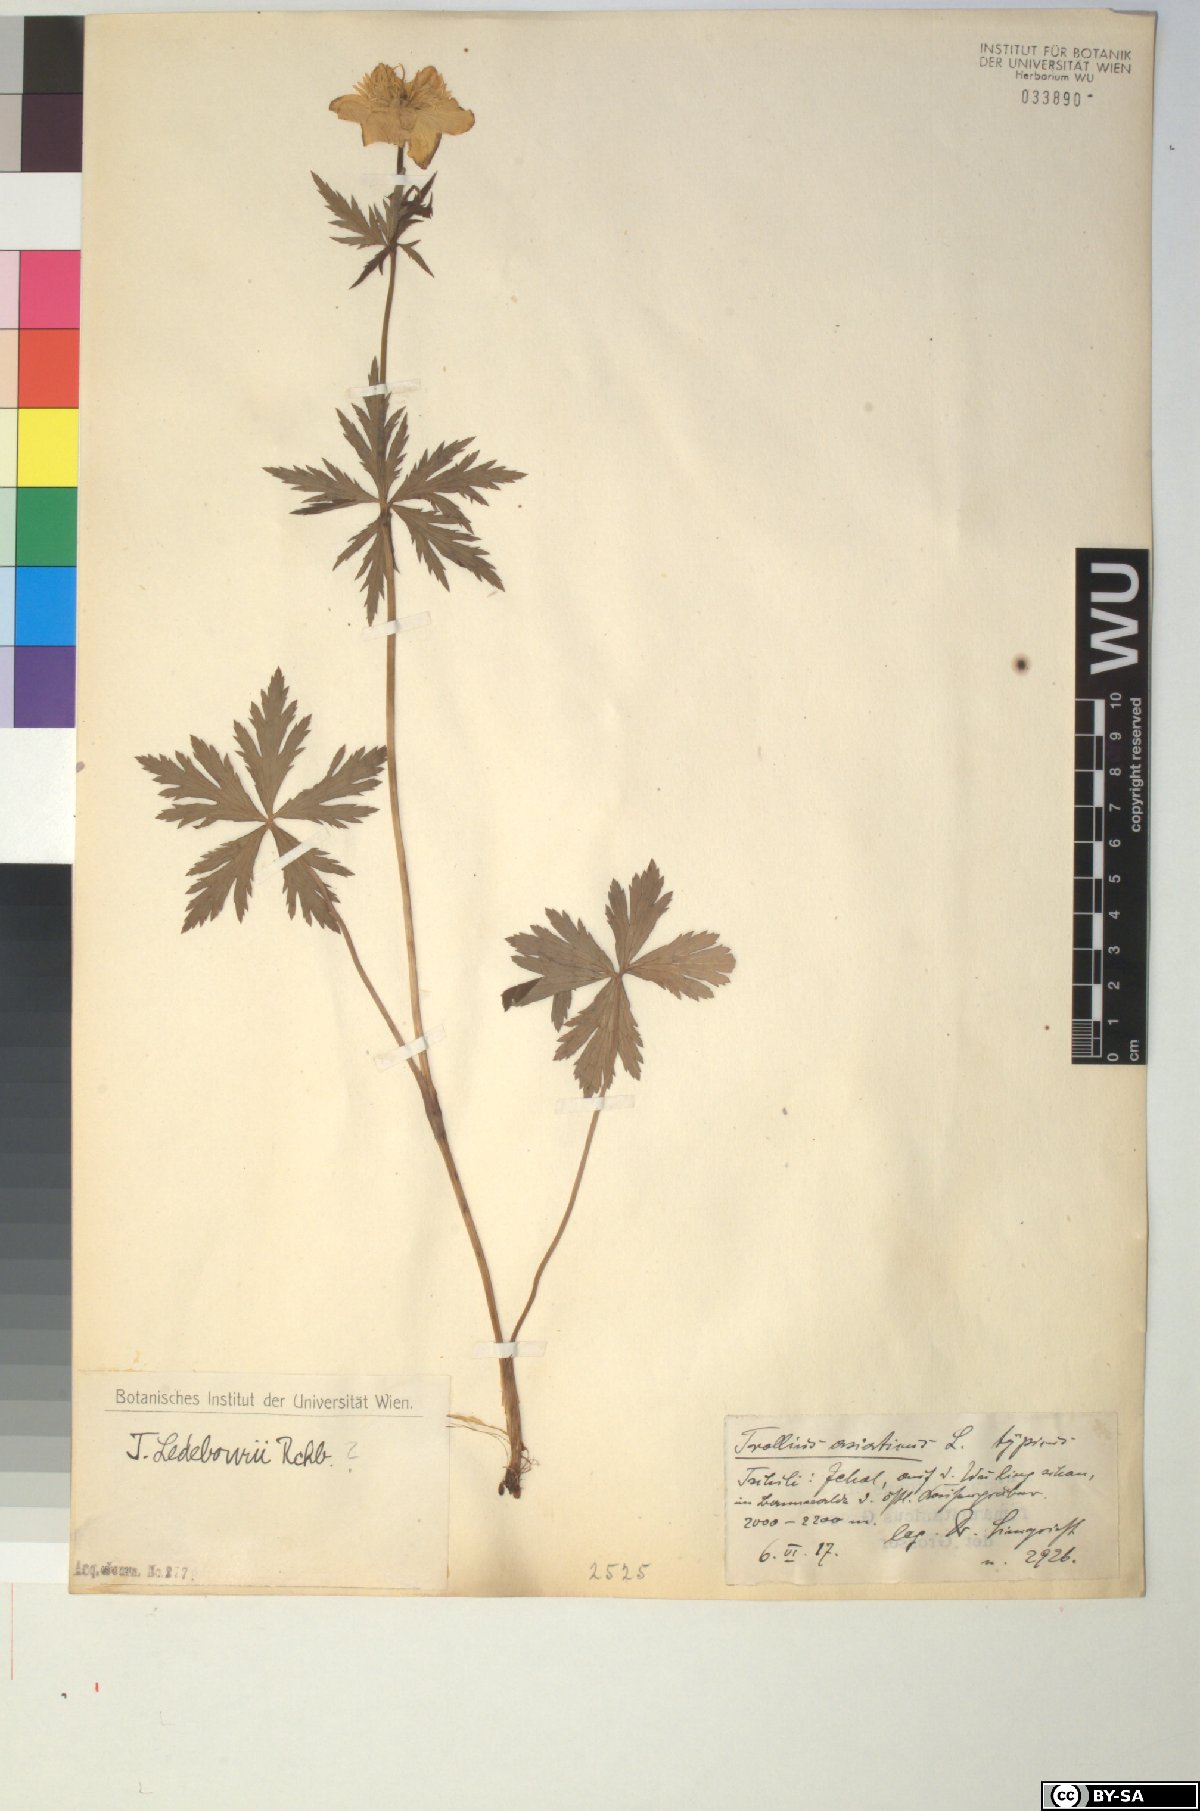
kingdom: Plantae
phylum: Tracheophyta
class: Magnoliopsida
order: Ranunculales
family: Ranunculaceae
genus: Trollius
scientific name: Trollius ledebourii
